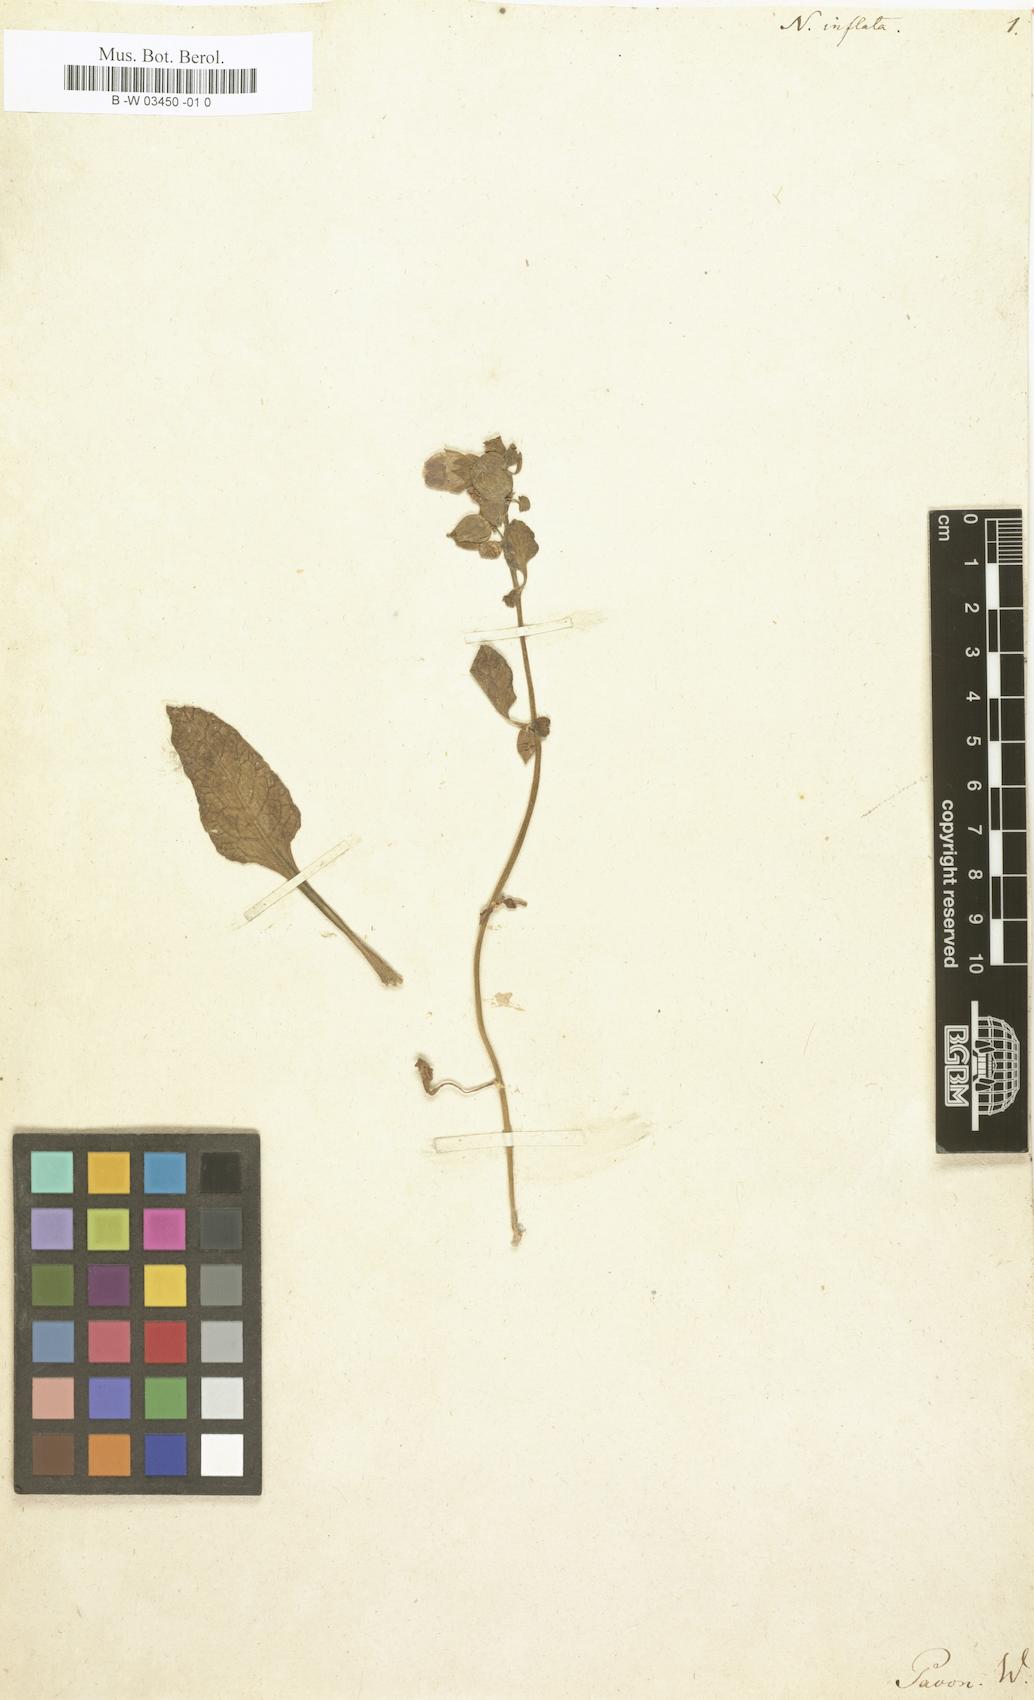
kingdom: Plantae
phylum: Tracheophyta
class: Magnoliopsida
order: Solanales
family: Solanaceae
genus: Nolana
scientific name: Nolana inflata
